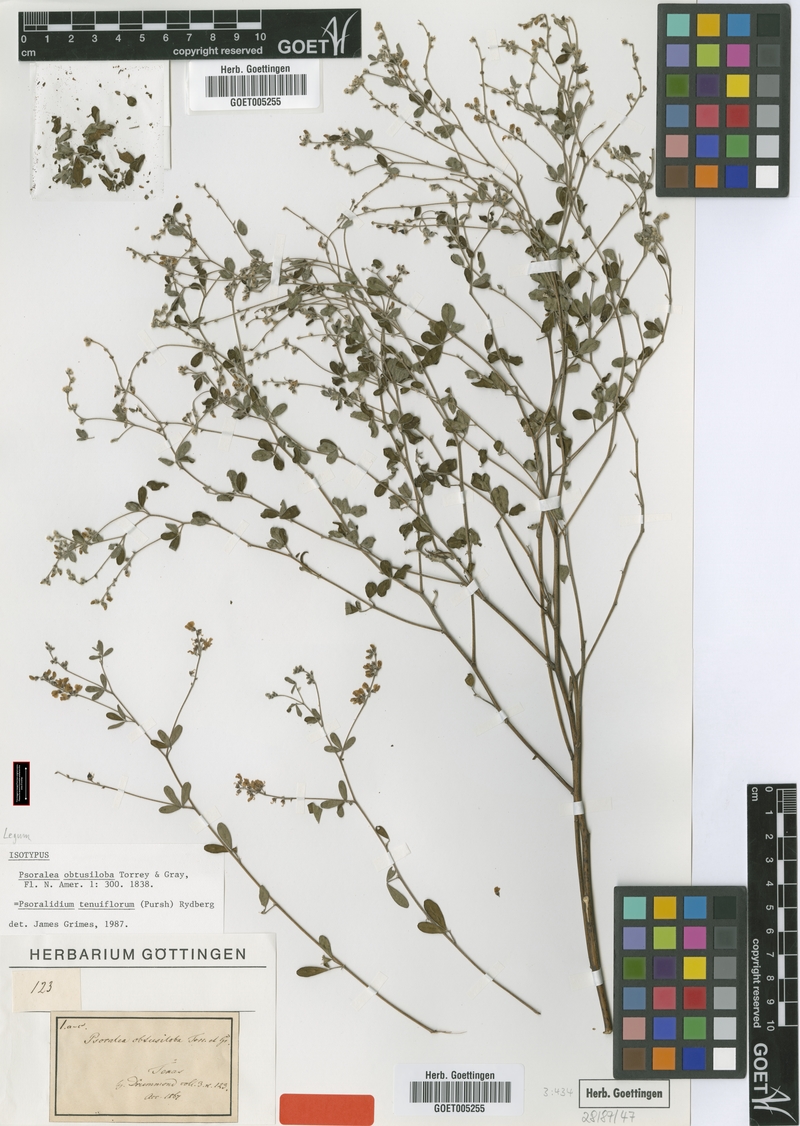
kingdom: Plantae
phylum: Tracheophyta
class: Magnoliopsida
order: Fabales
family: Fabaceae
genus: Pediomelum
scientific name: Pediomelum tenuiflorum
